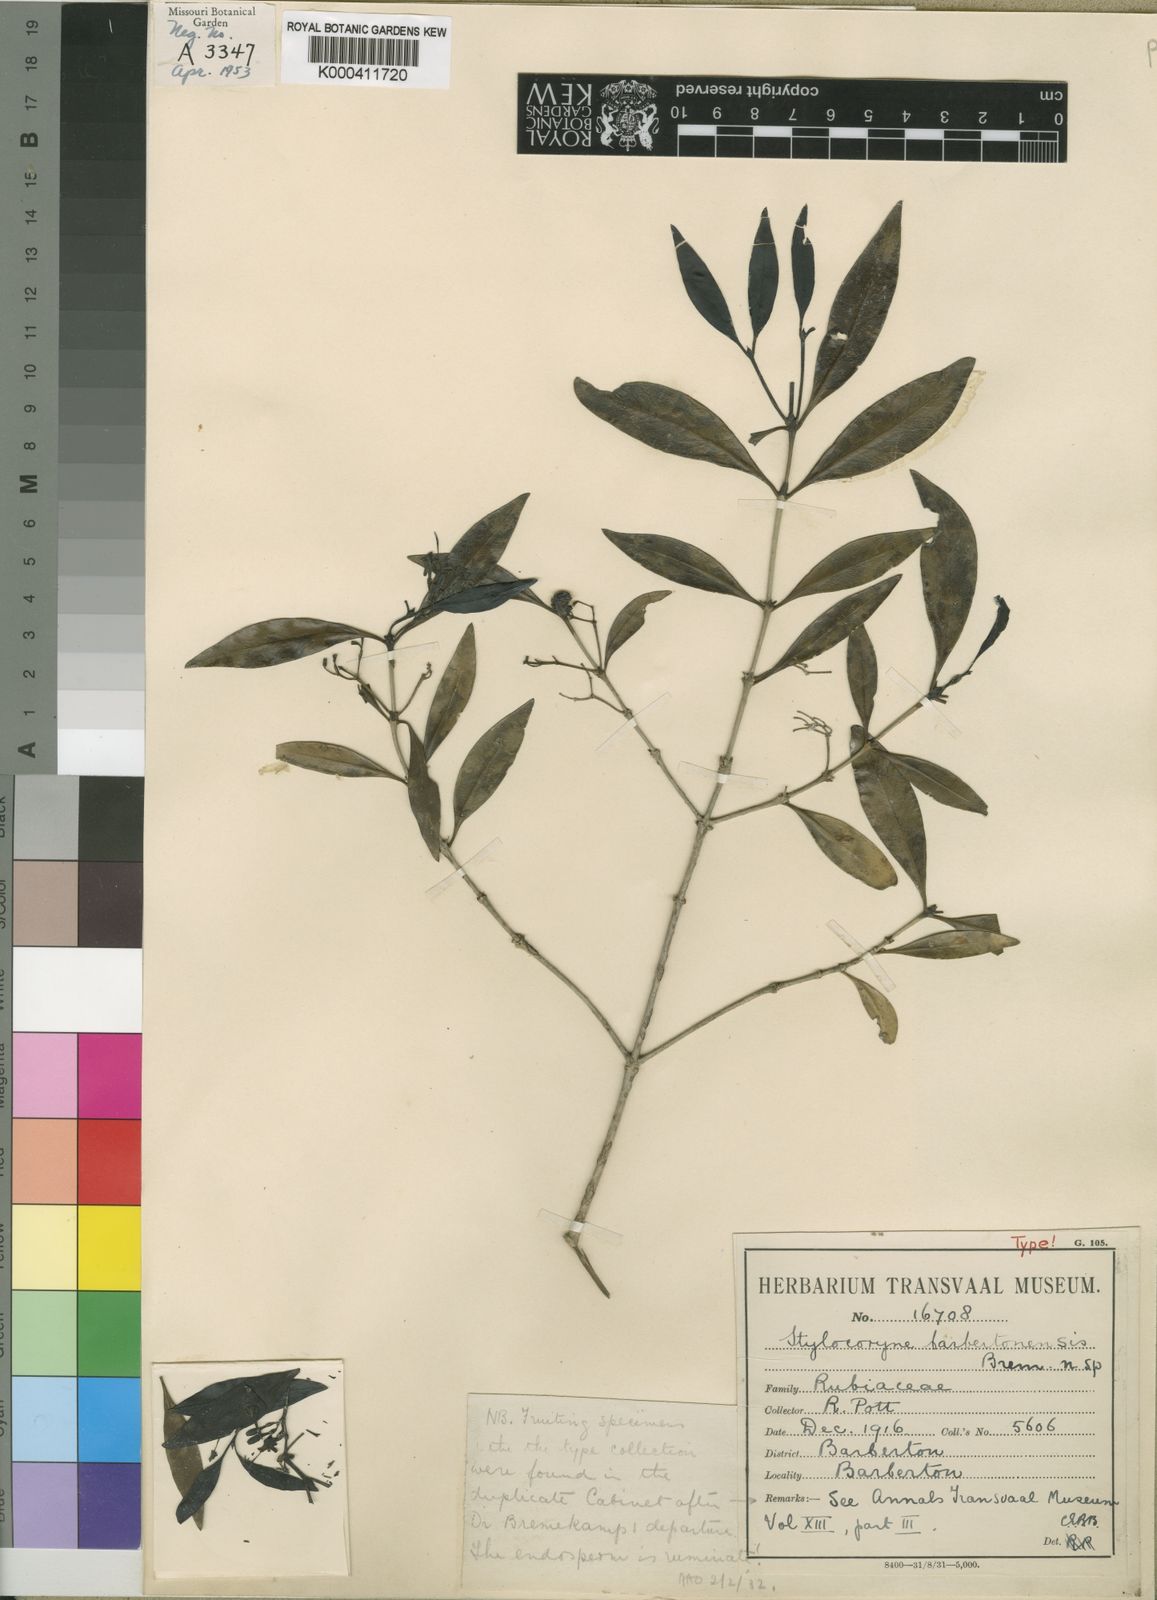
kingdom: Plantae
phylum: Tracheophyta
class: Magnoliopsida
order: Gentianales
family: Rubiaceae
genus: Coptosperma
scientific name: Coptosperma
